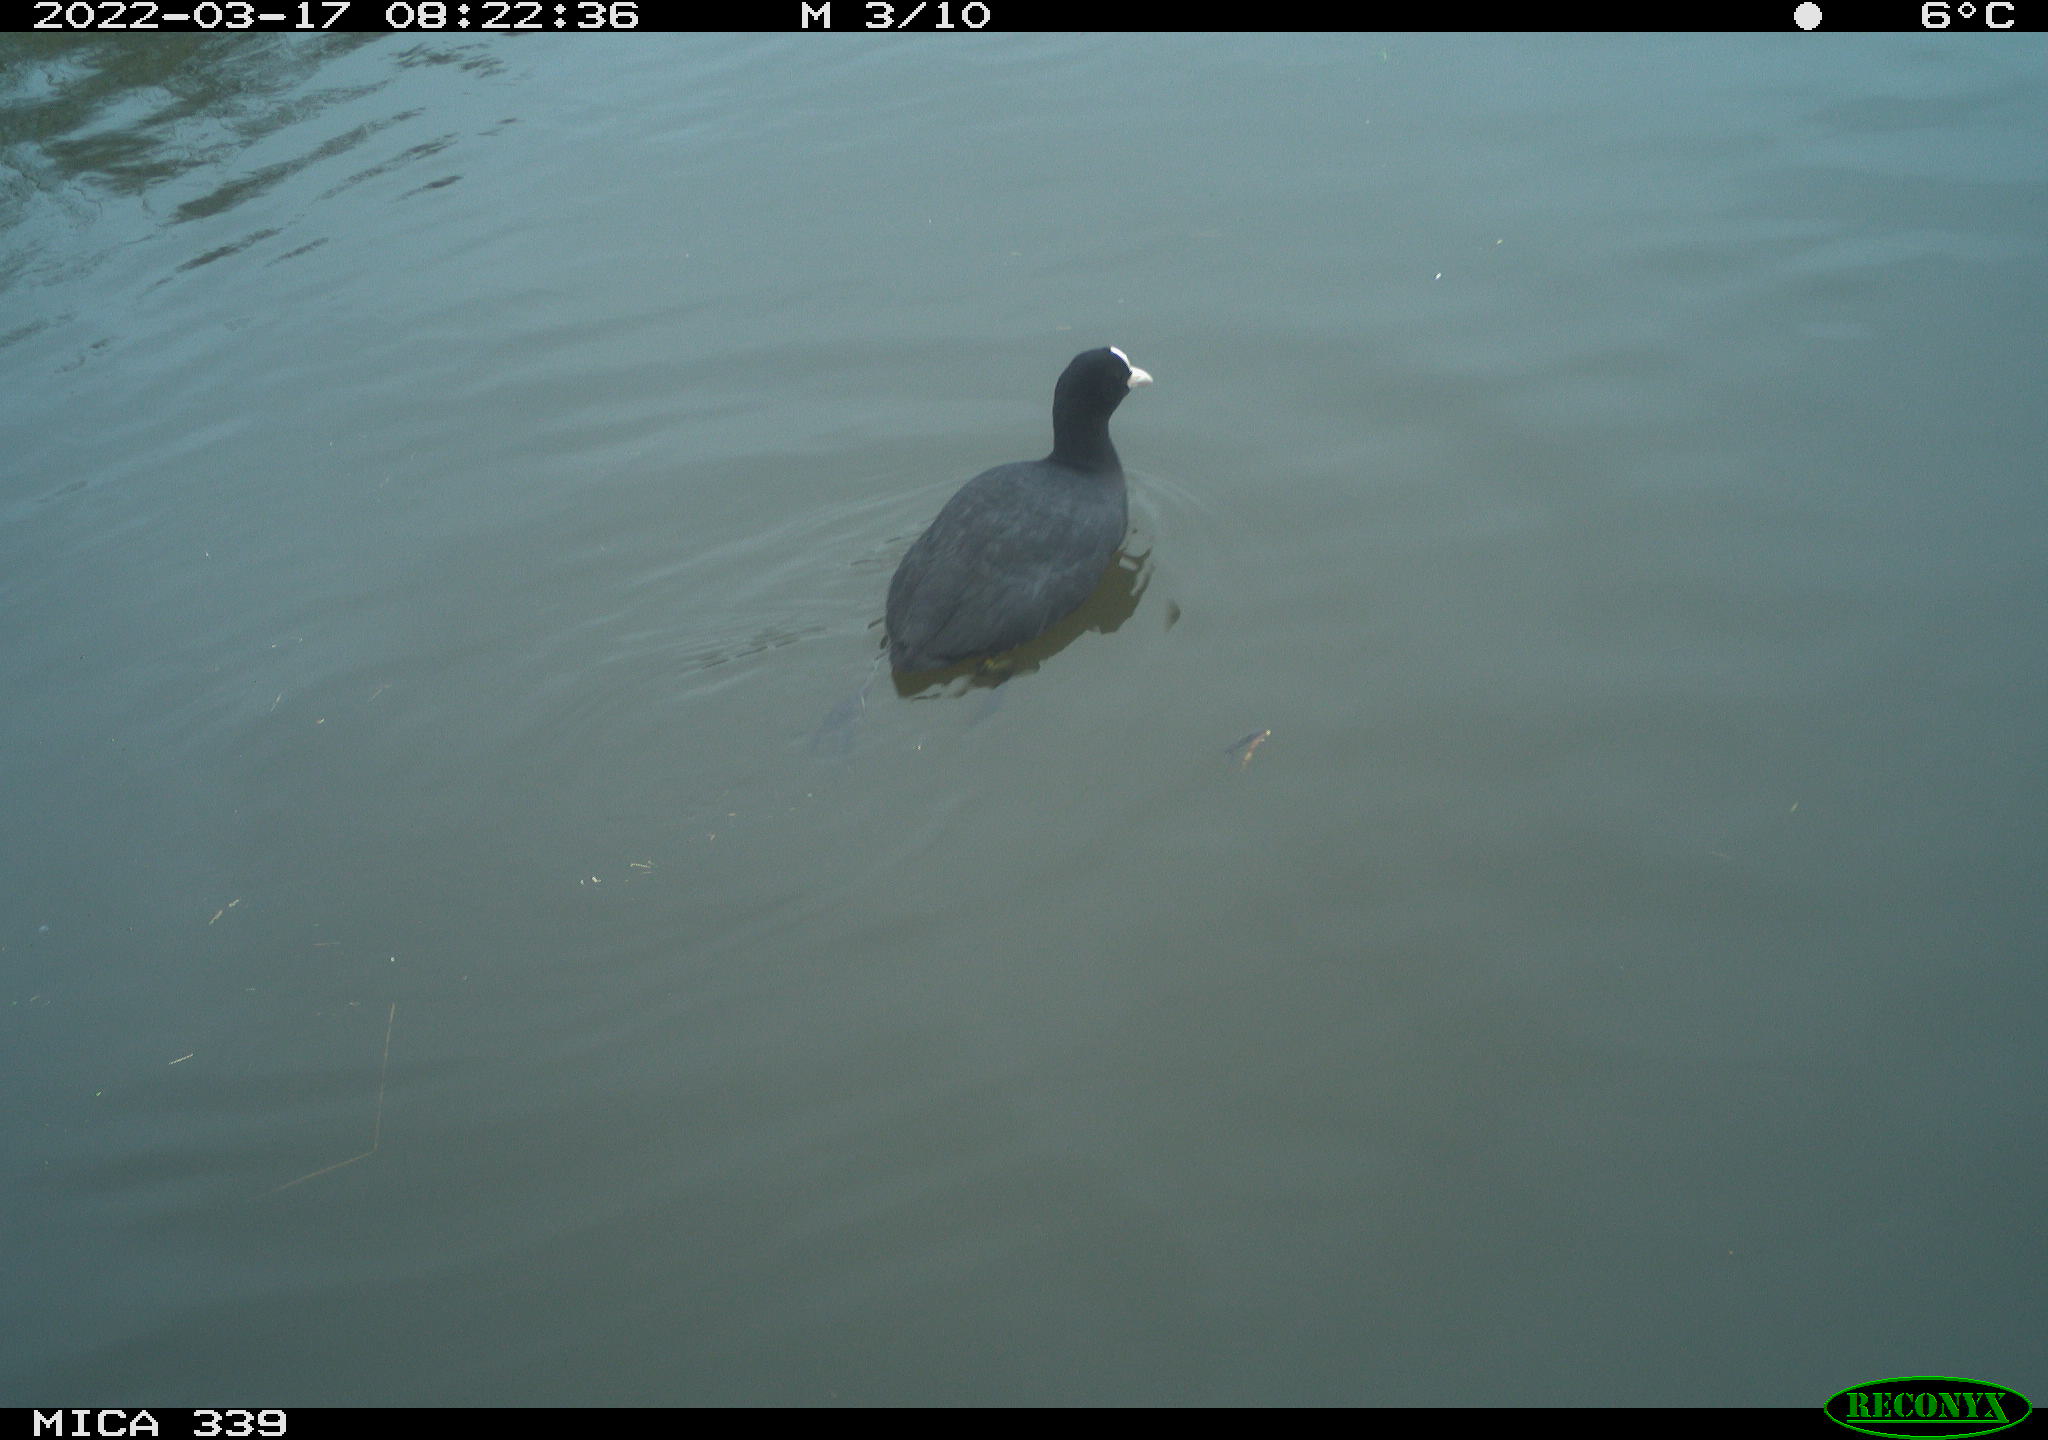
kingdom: Animalia
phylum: Chordata
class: Aves
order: Gruiformes
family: Rallidae
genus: Fulica
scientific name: Fulica atra
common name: Eurasian coot
